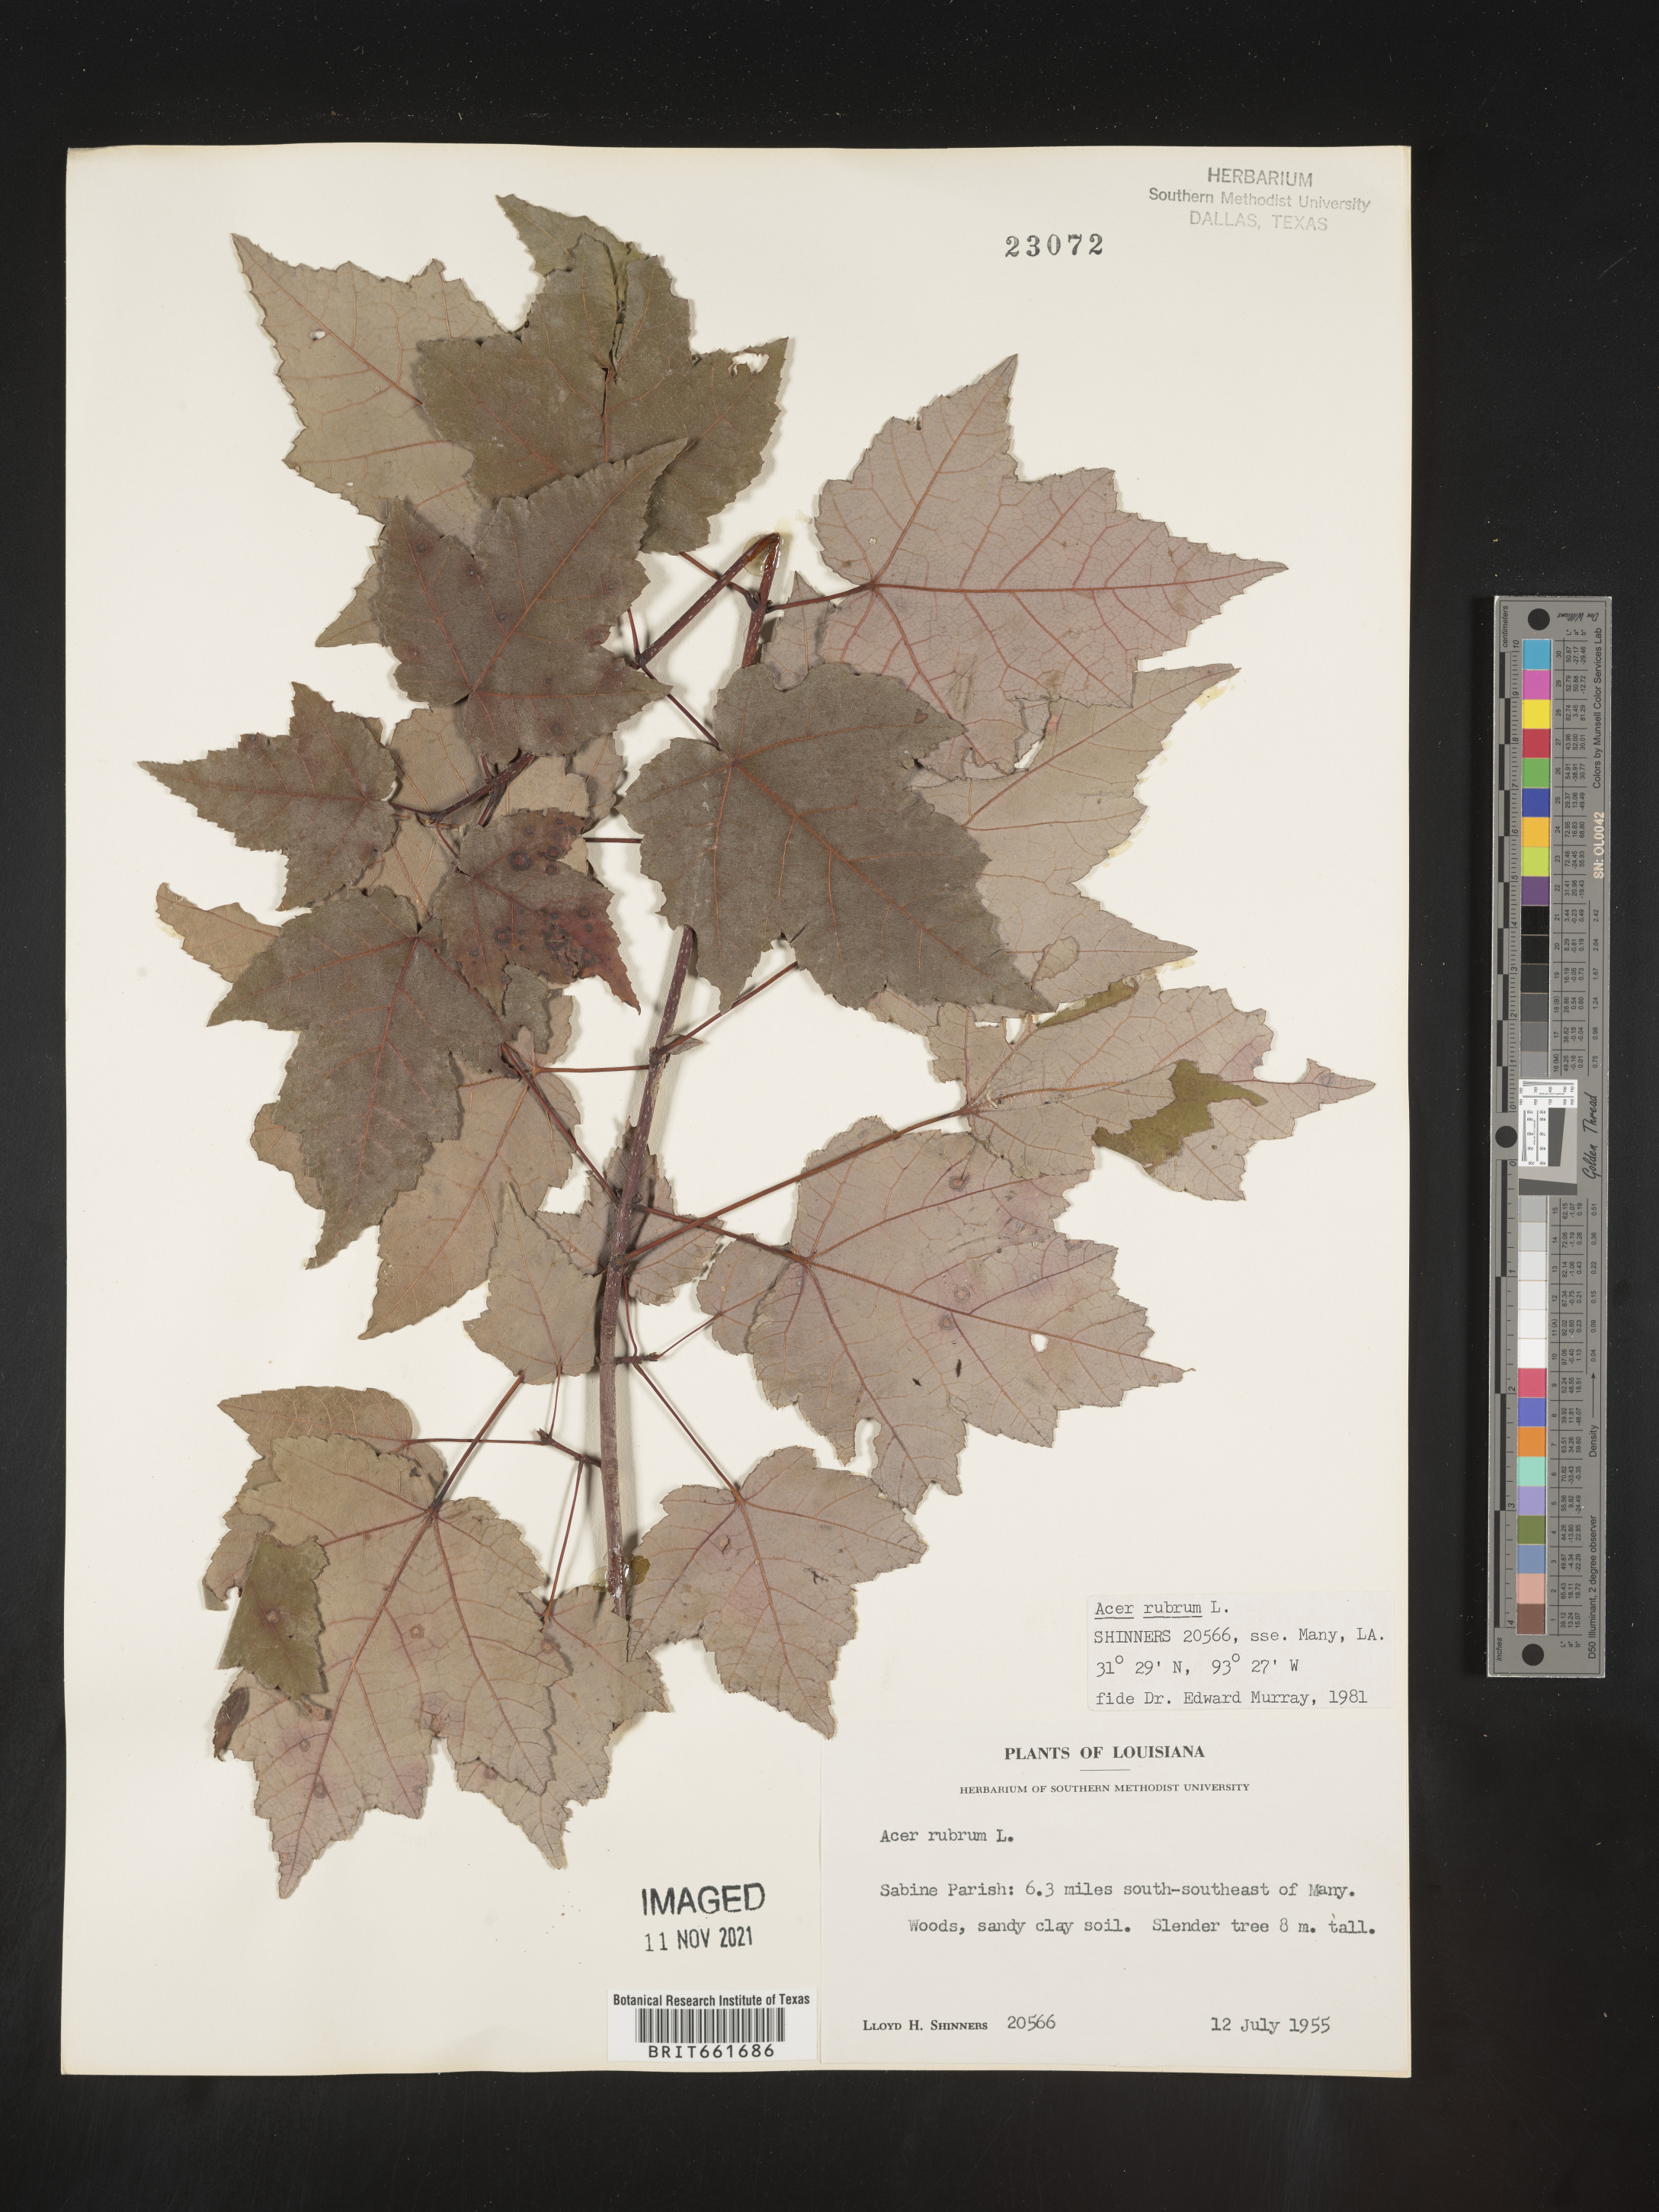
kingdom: Plantae
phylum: Tracheophyta
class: Magnoliopsida
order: Sapindales
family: Sapindaceae
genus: Acer
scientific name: Acer rubrum
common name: Red maple
